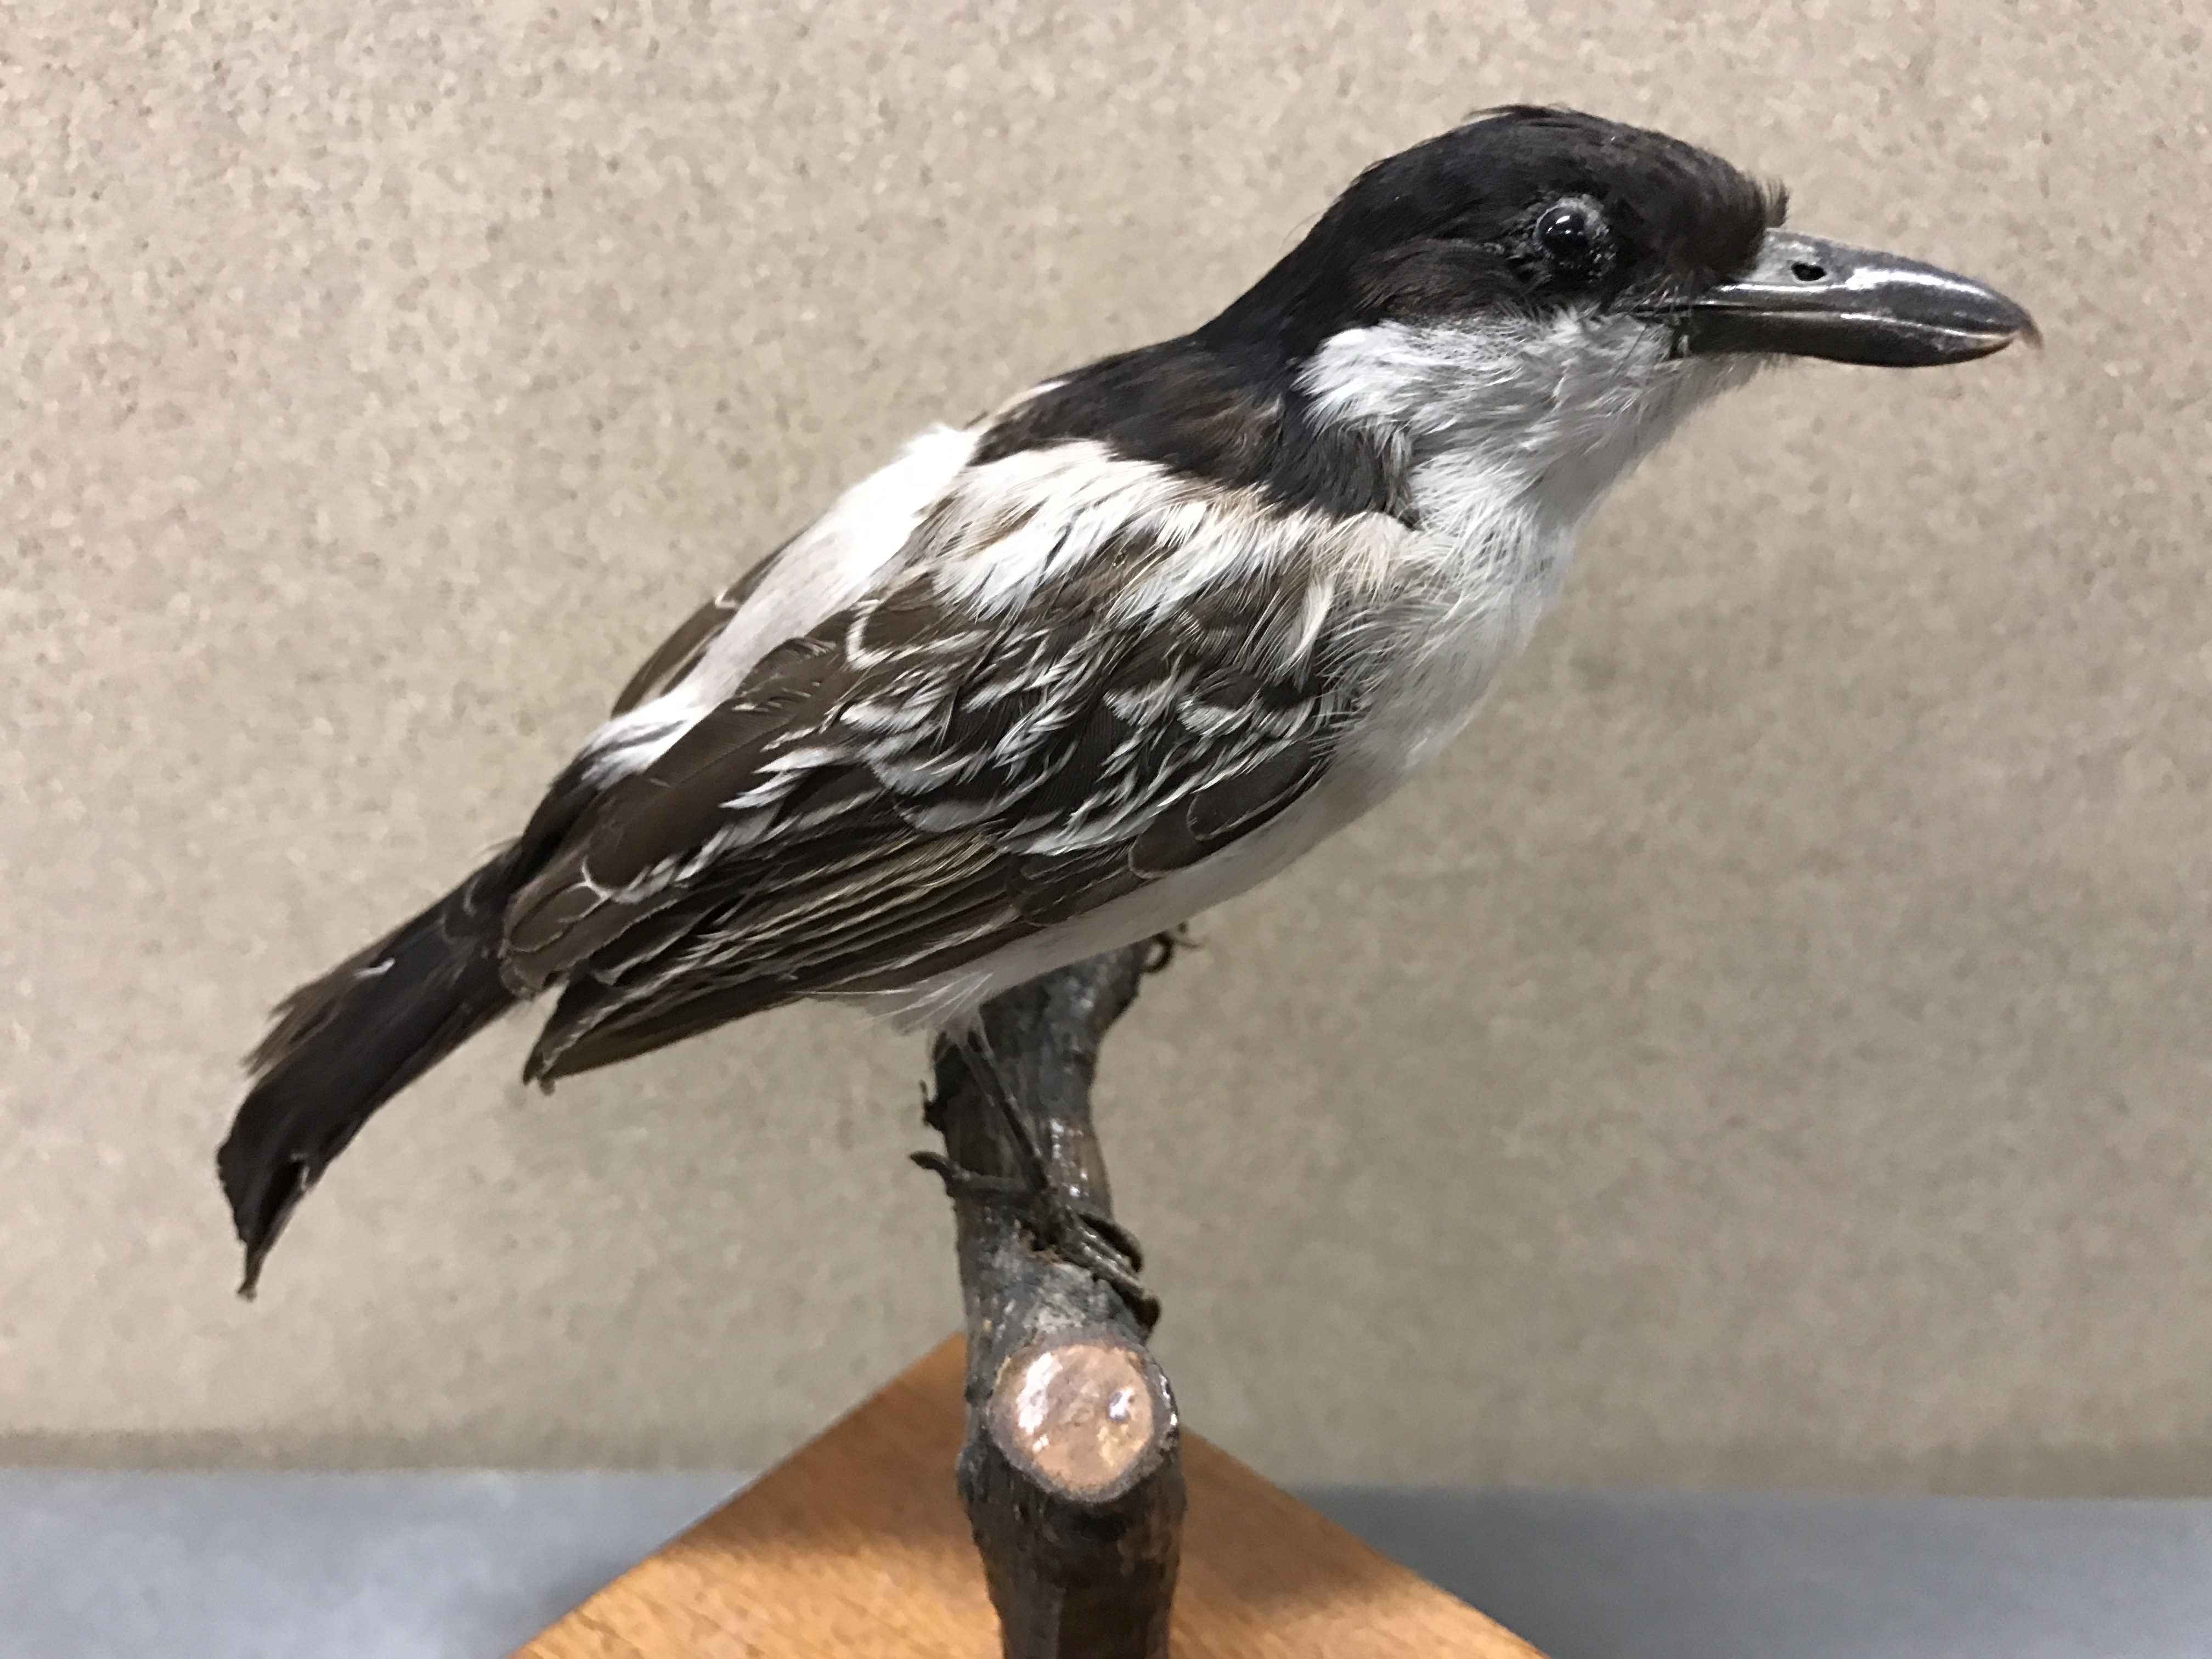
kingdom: Animalia
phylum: Chordata
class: Aves
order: Passeriformes
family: Malaconotidae
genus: Dryoscopus
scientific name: Dryoscopus gambensis
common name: Northern puffback
